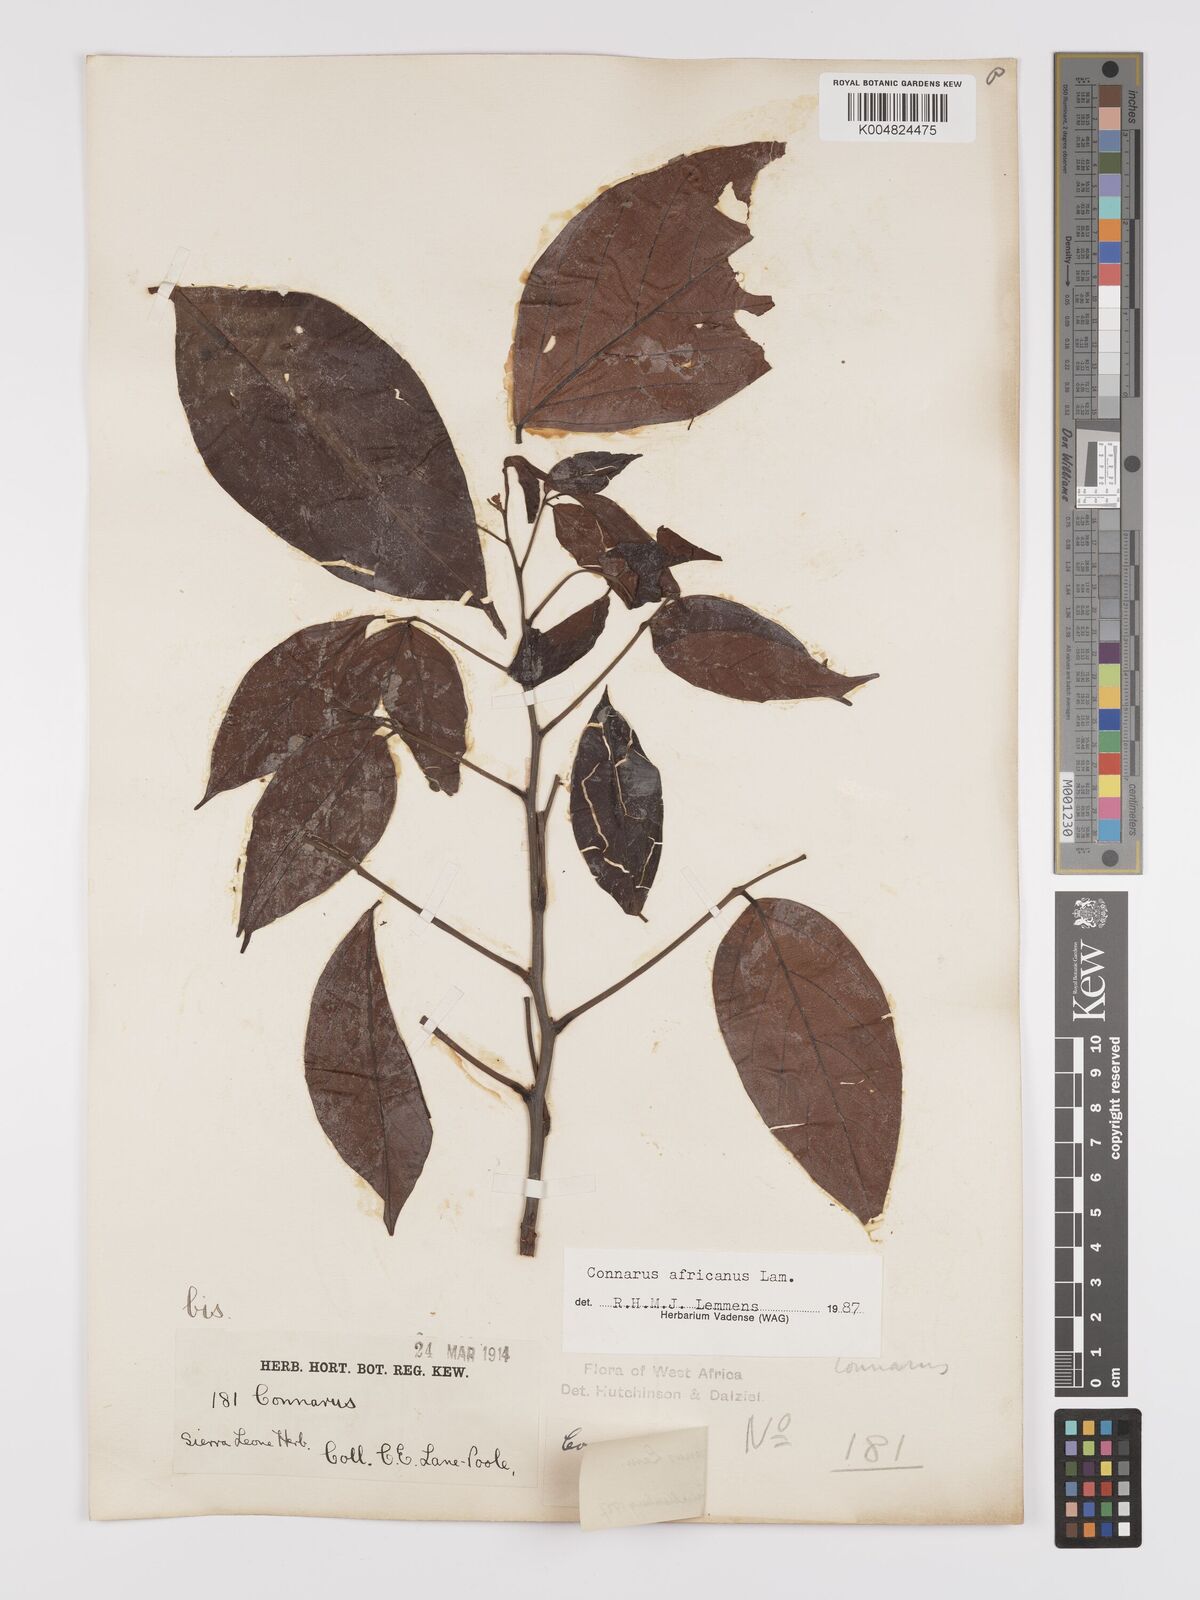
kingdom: Plantae
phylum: Tracheophyta
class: Magnoliopsida
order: Oxalidales
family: Connaraceae
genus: Connarus
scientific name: Connarus africanus
